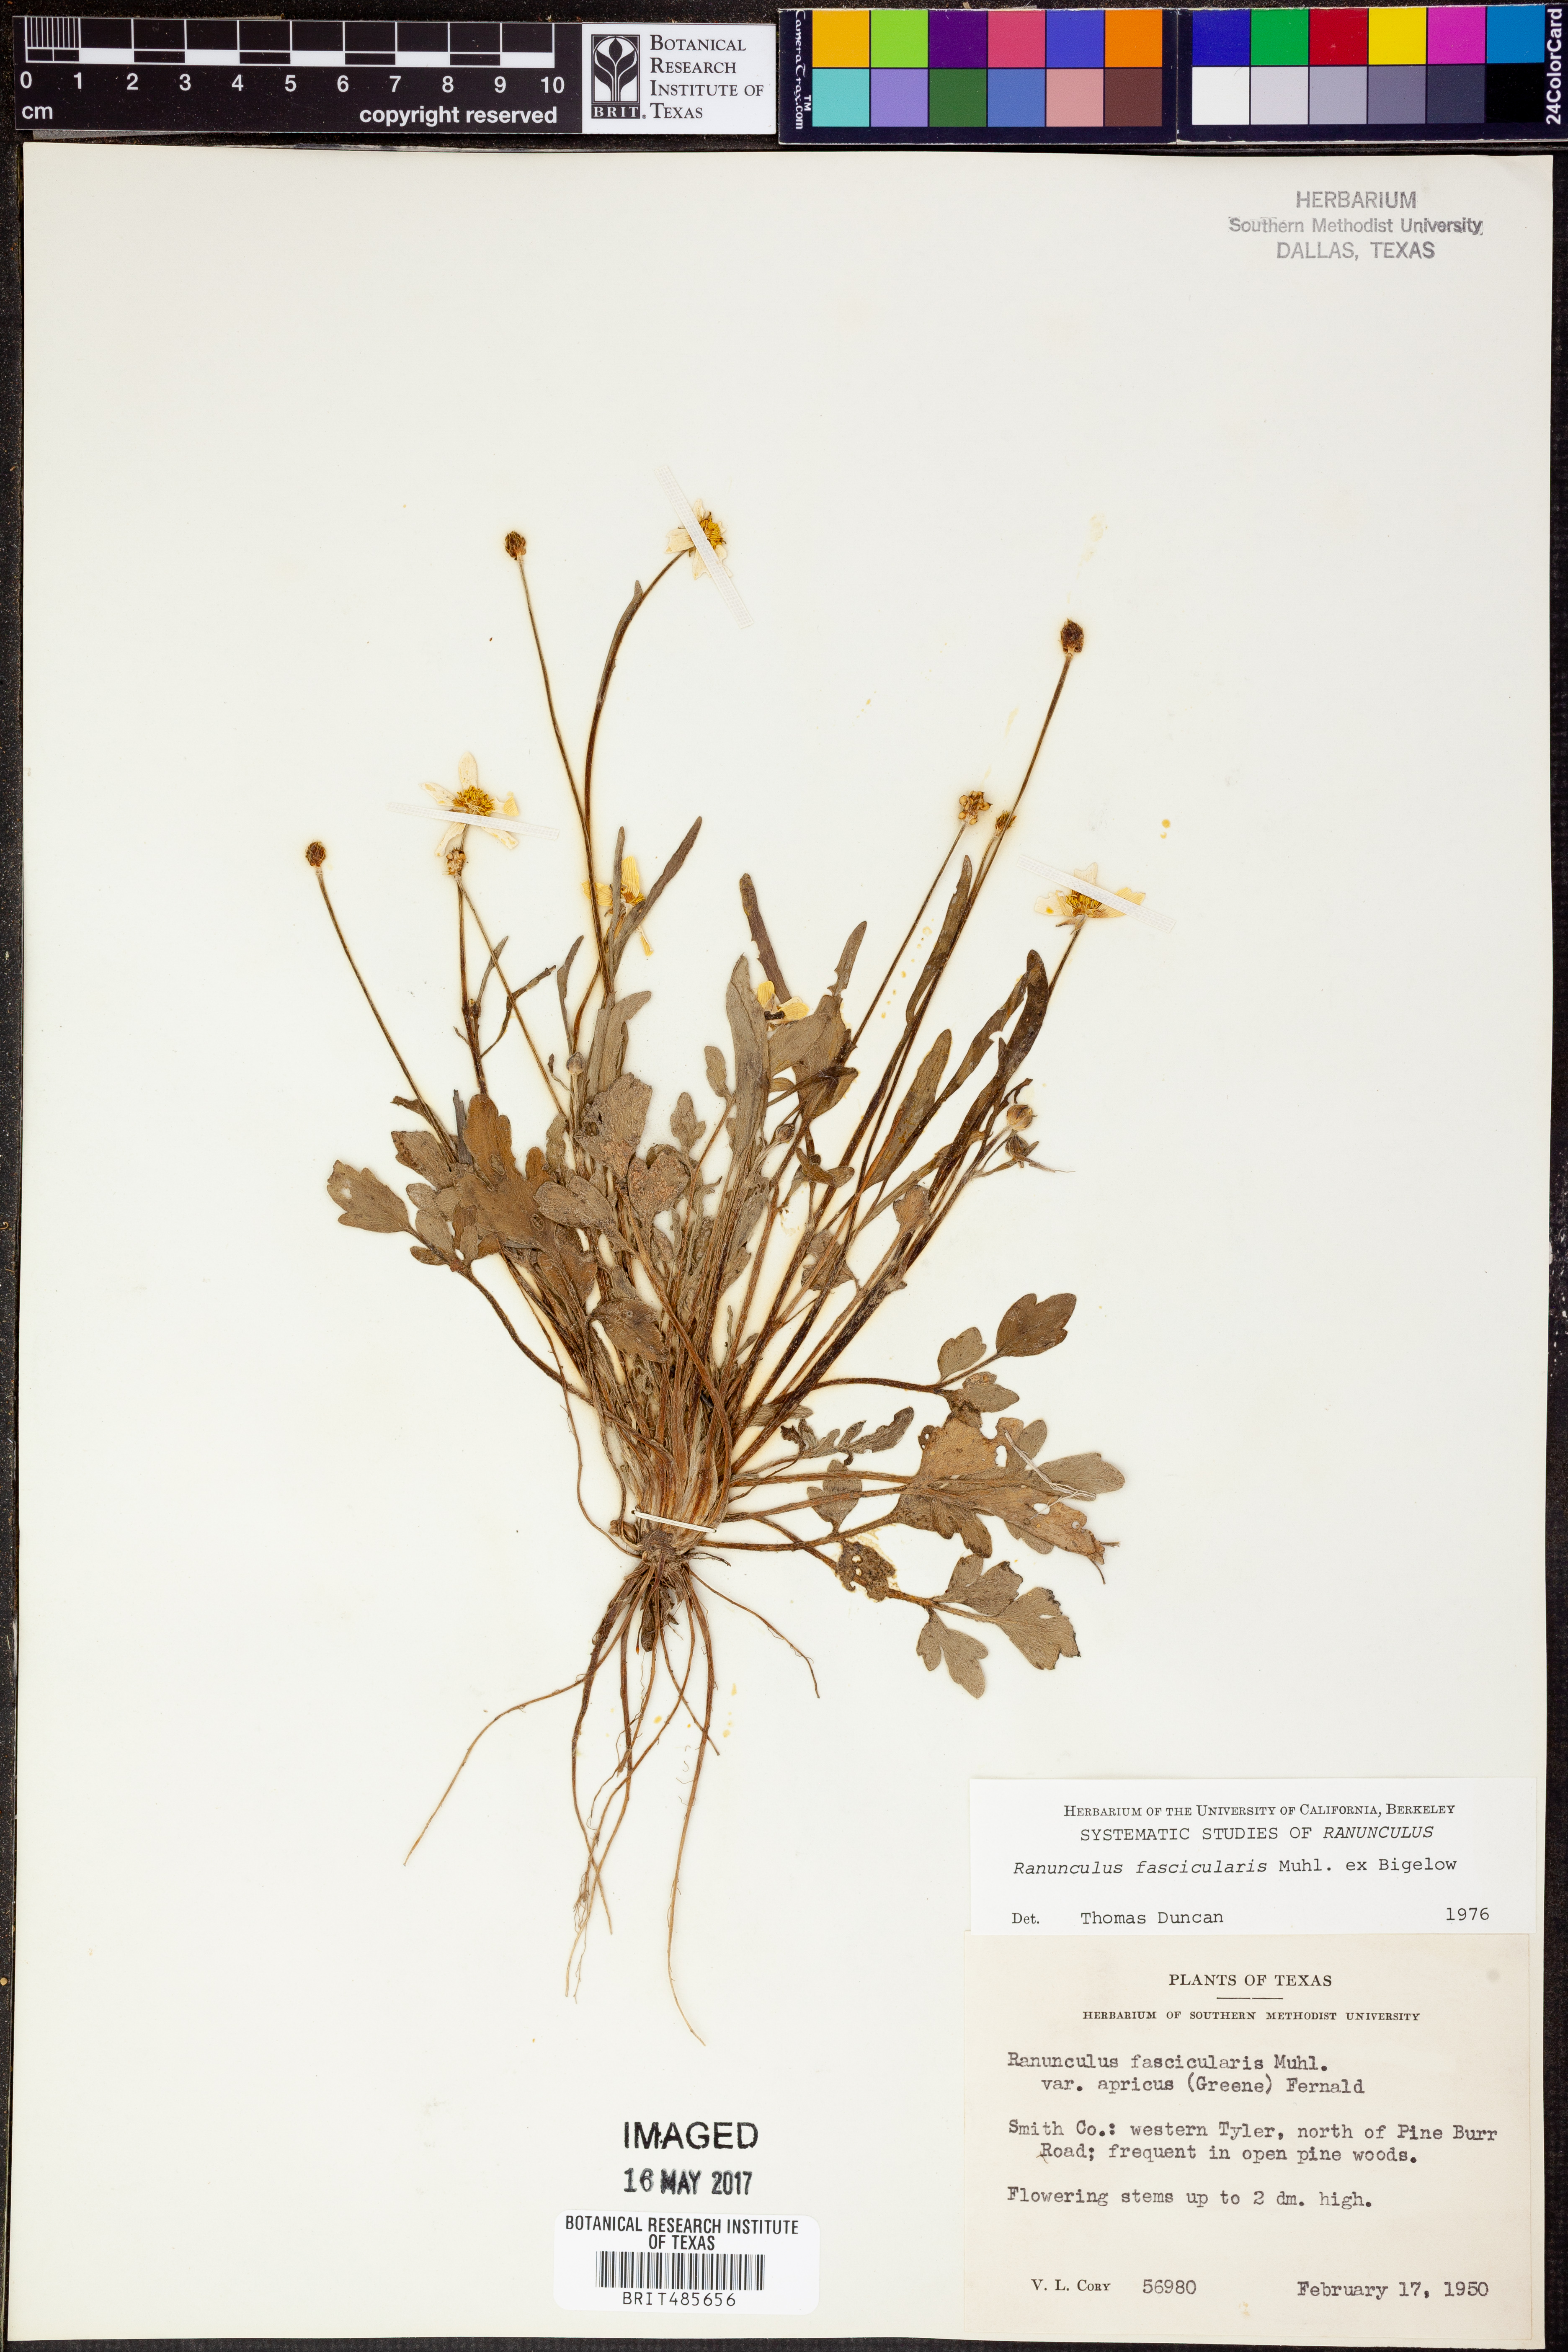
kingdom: Plantae
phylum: Tracheophyta
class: Magnoliopsida
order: Ranunculales
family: Ranunculaceae
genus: Ranunculus
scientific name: Ranunculus fascicularis
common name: Early buttercup
